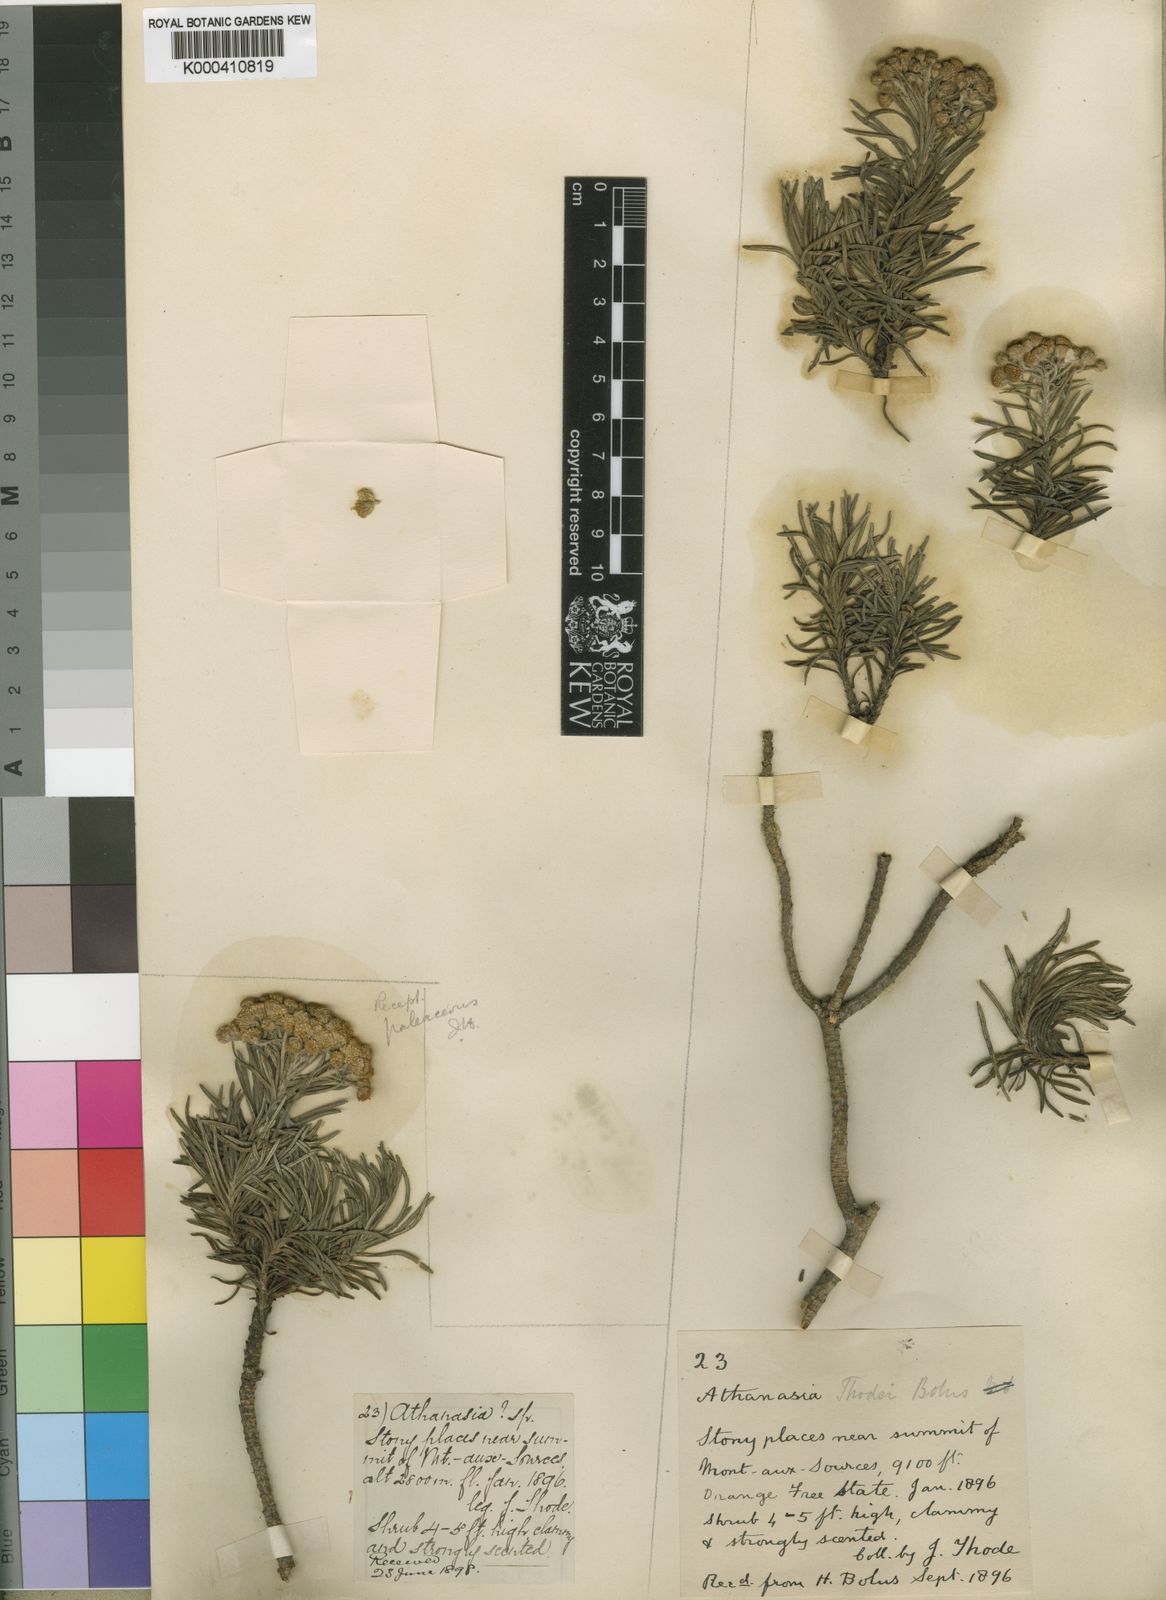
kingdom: Plantae
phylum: Tracheophyta
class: Magnoliopsida
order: Asterales
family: Asteraceae
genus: Inulanthera
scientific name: Inulanthera
